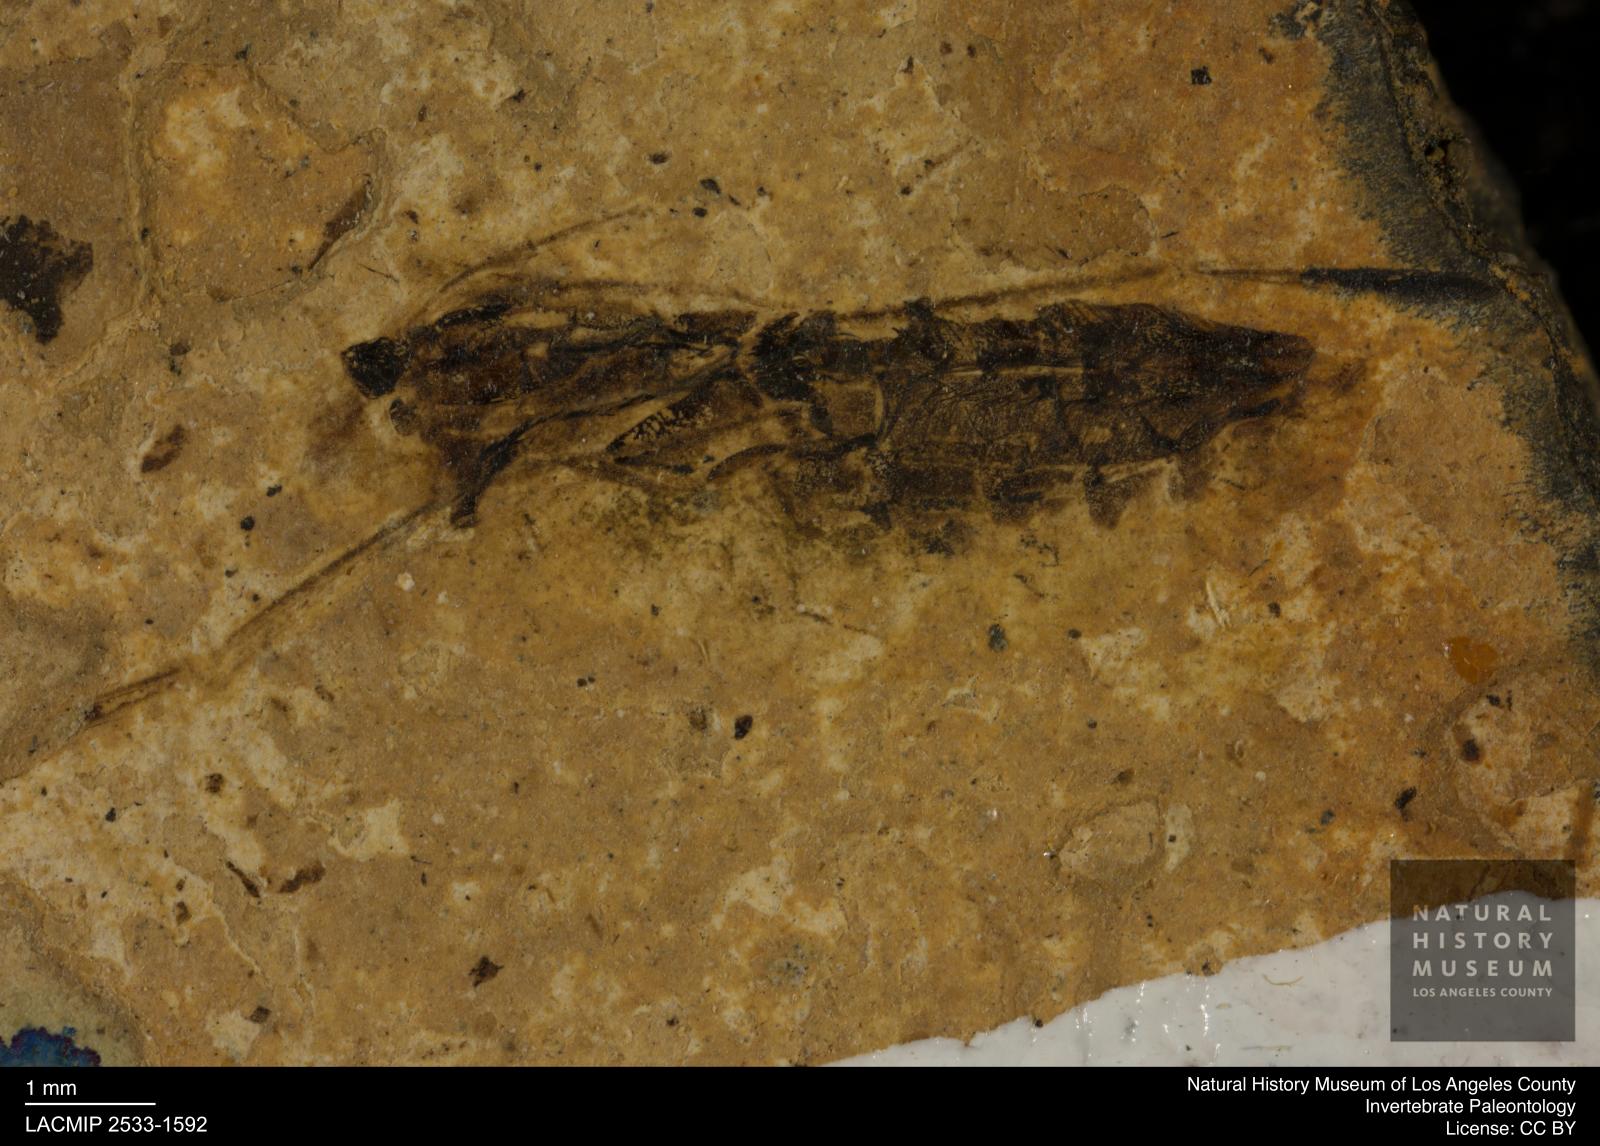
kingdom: Animalia
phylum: Arthropoda
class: Insecta
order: Hemiptera
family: Notonectidae
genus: Notonecta
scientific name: Notonecta
